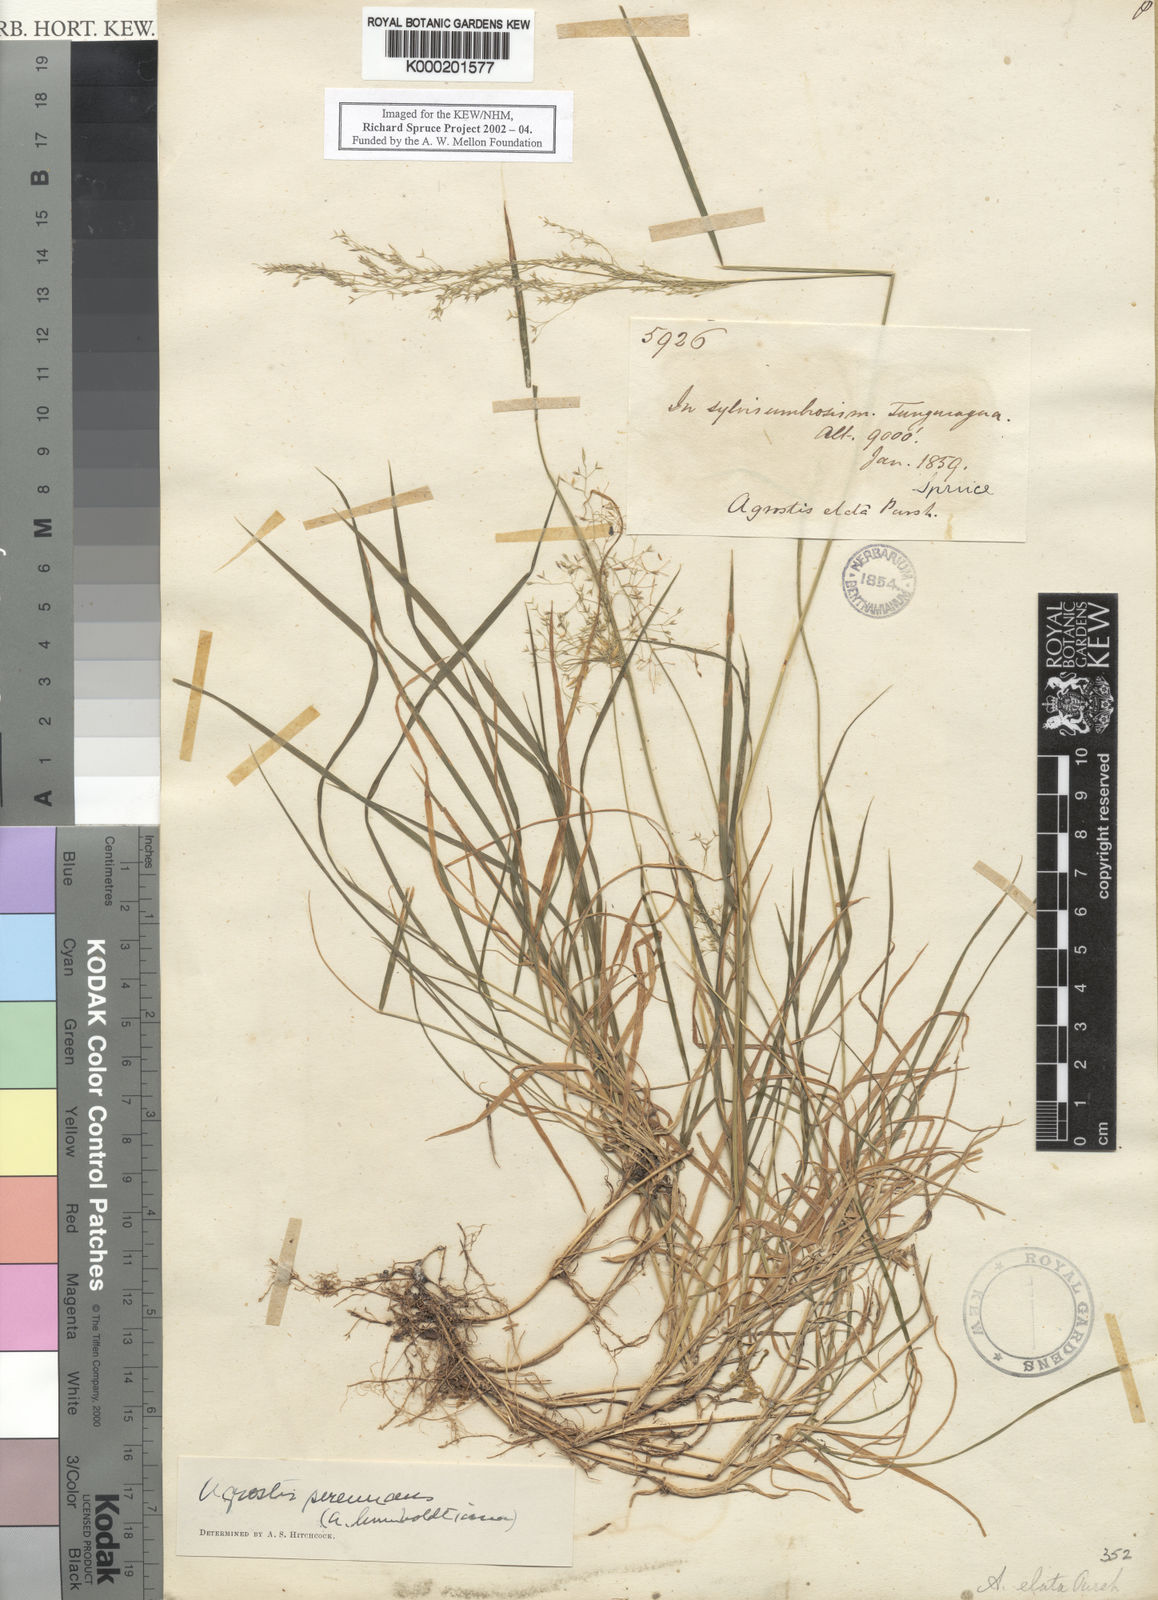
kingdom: Plantae
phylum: Tracheophyta
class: Liliopsida
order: Poales
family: Poaceae
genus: Agrostis
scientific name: Agrostis perennans
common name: Autumn bent
